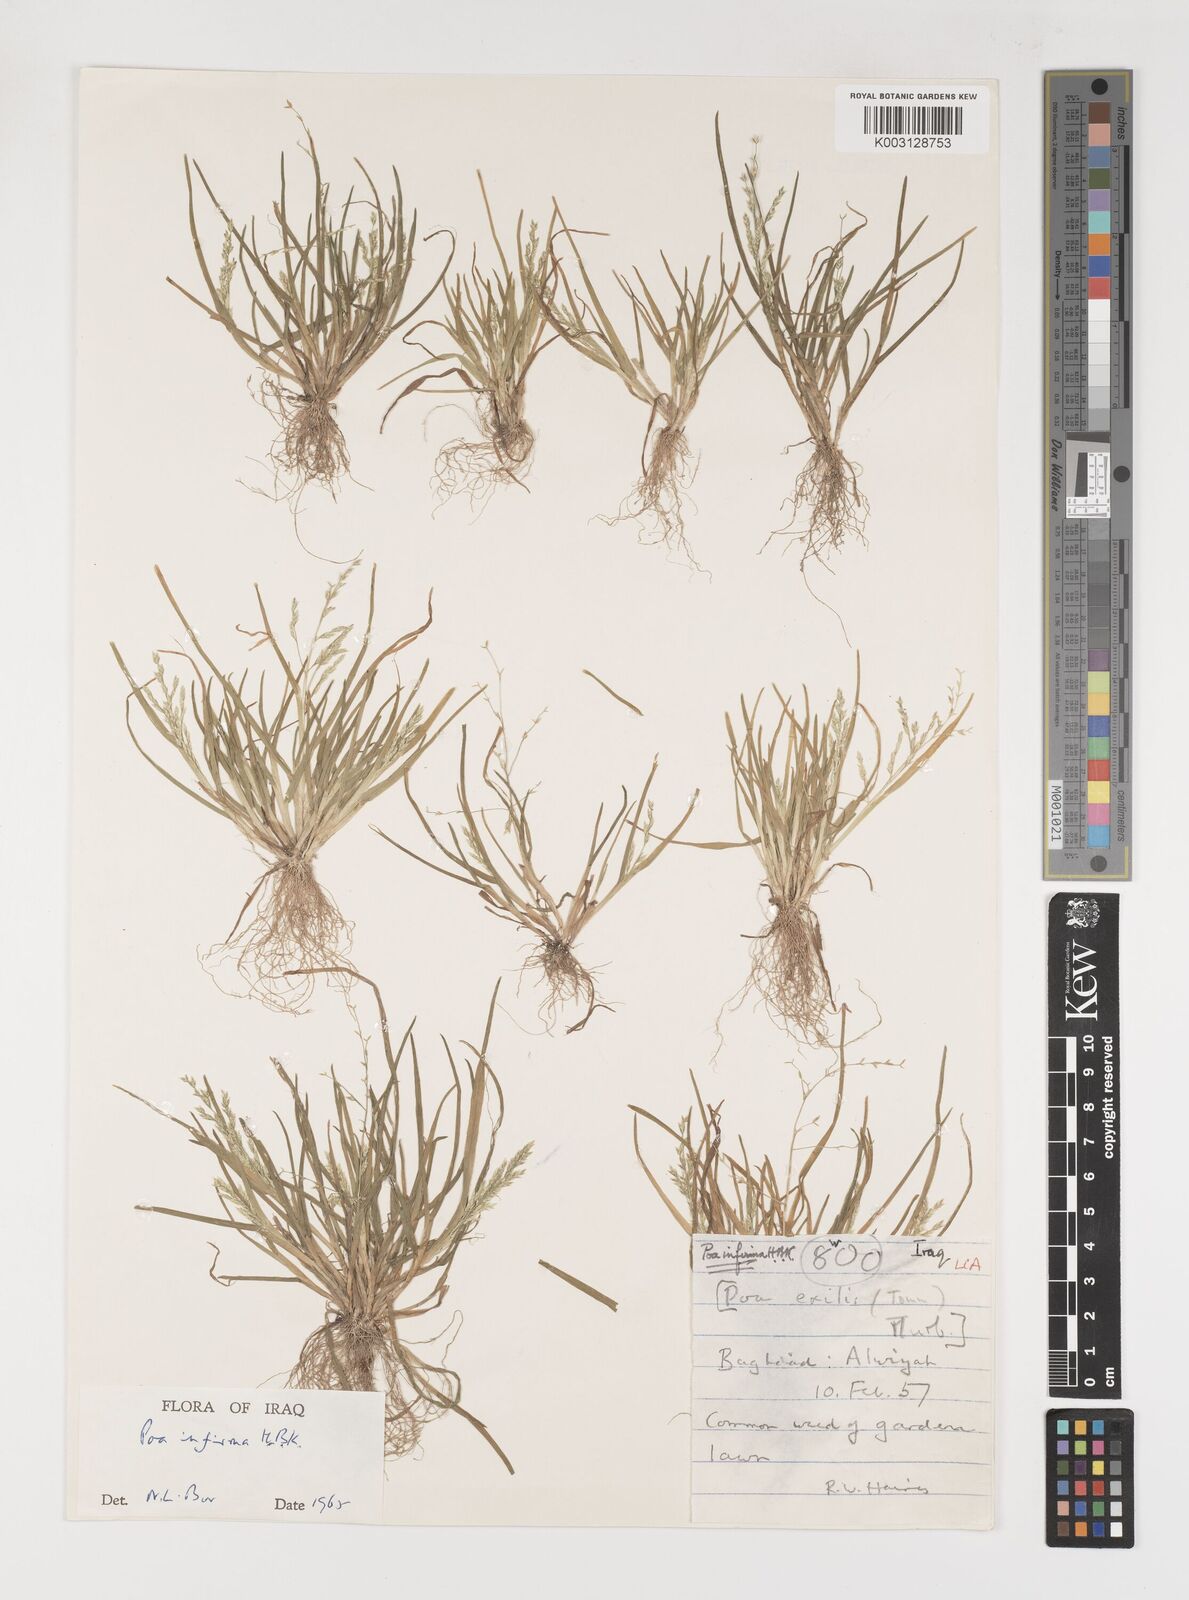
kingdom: Plantae
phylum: Tracheophyta
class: Liliopsida
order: Poales
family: Poaceae
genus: Poa
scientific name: Poa infirma
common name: Weak bluegrass
